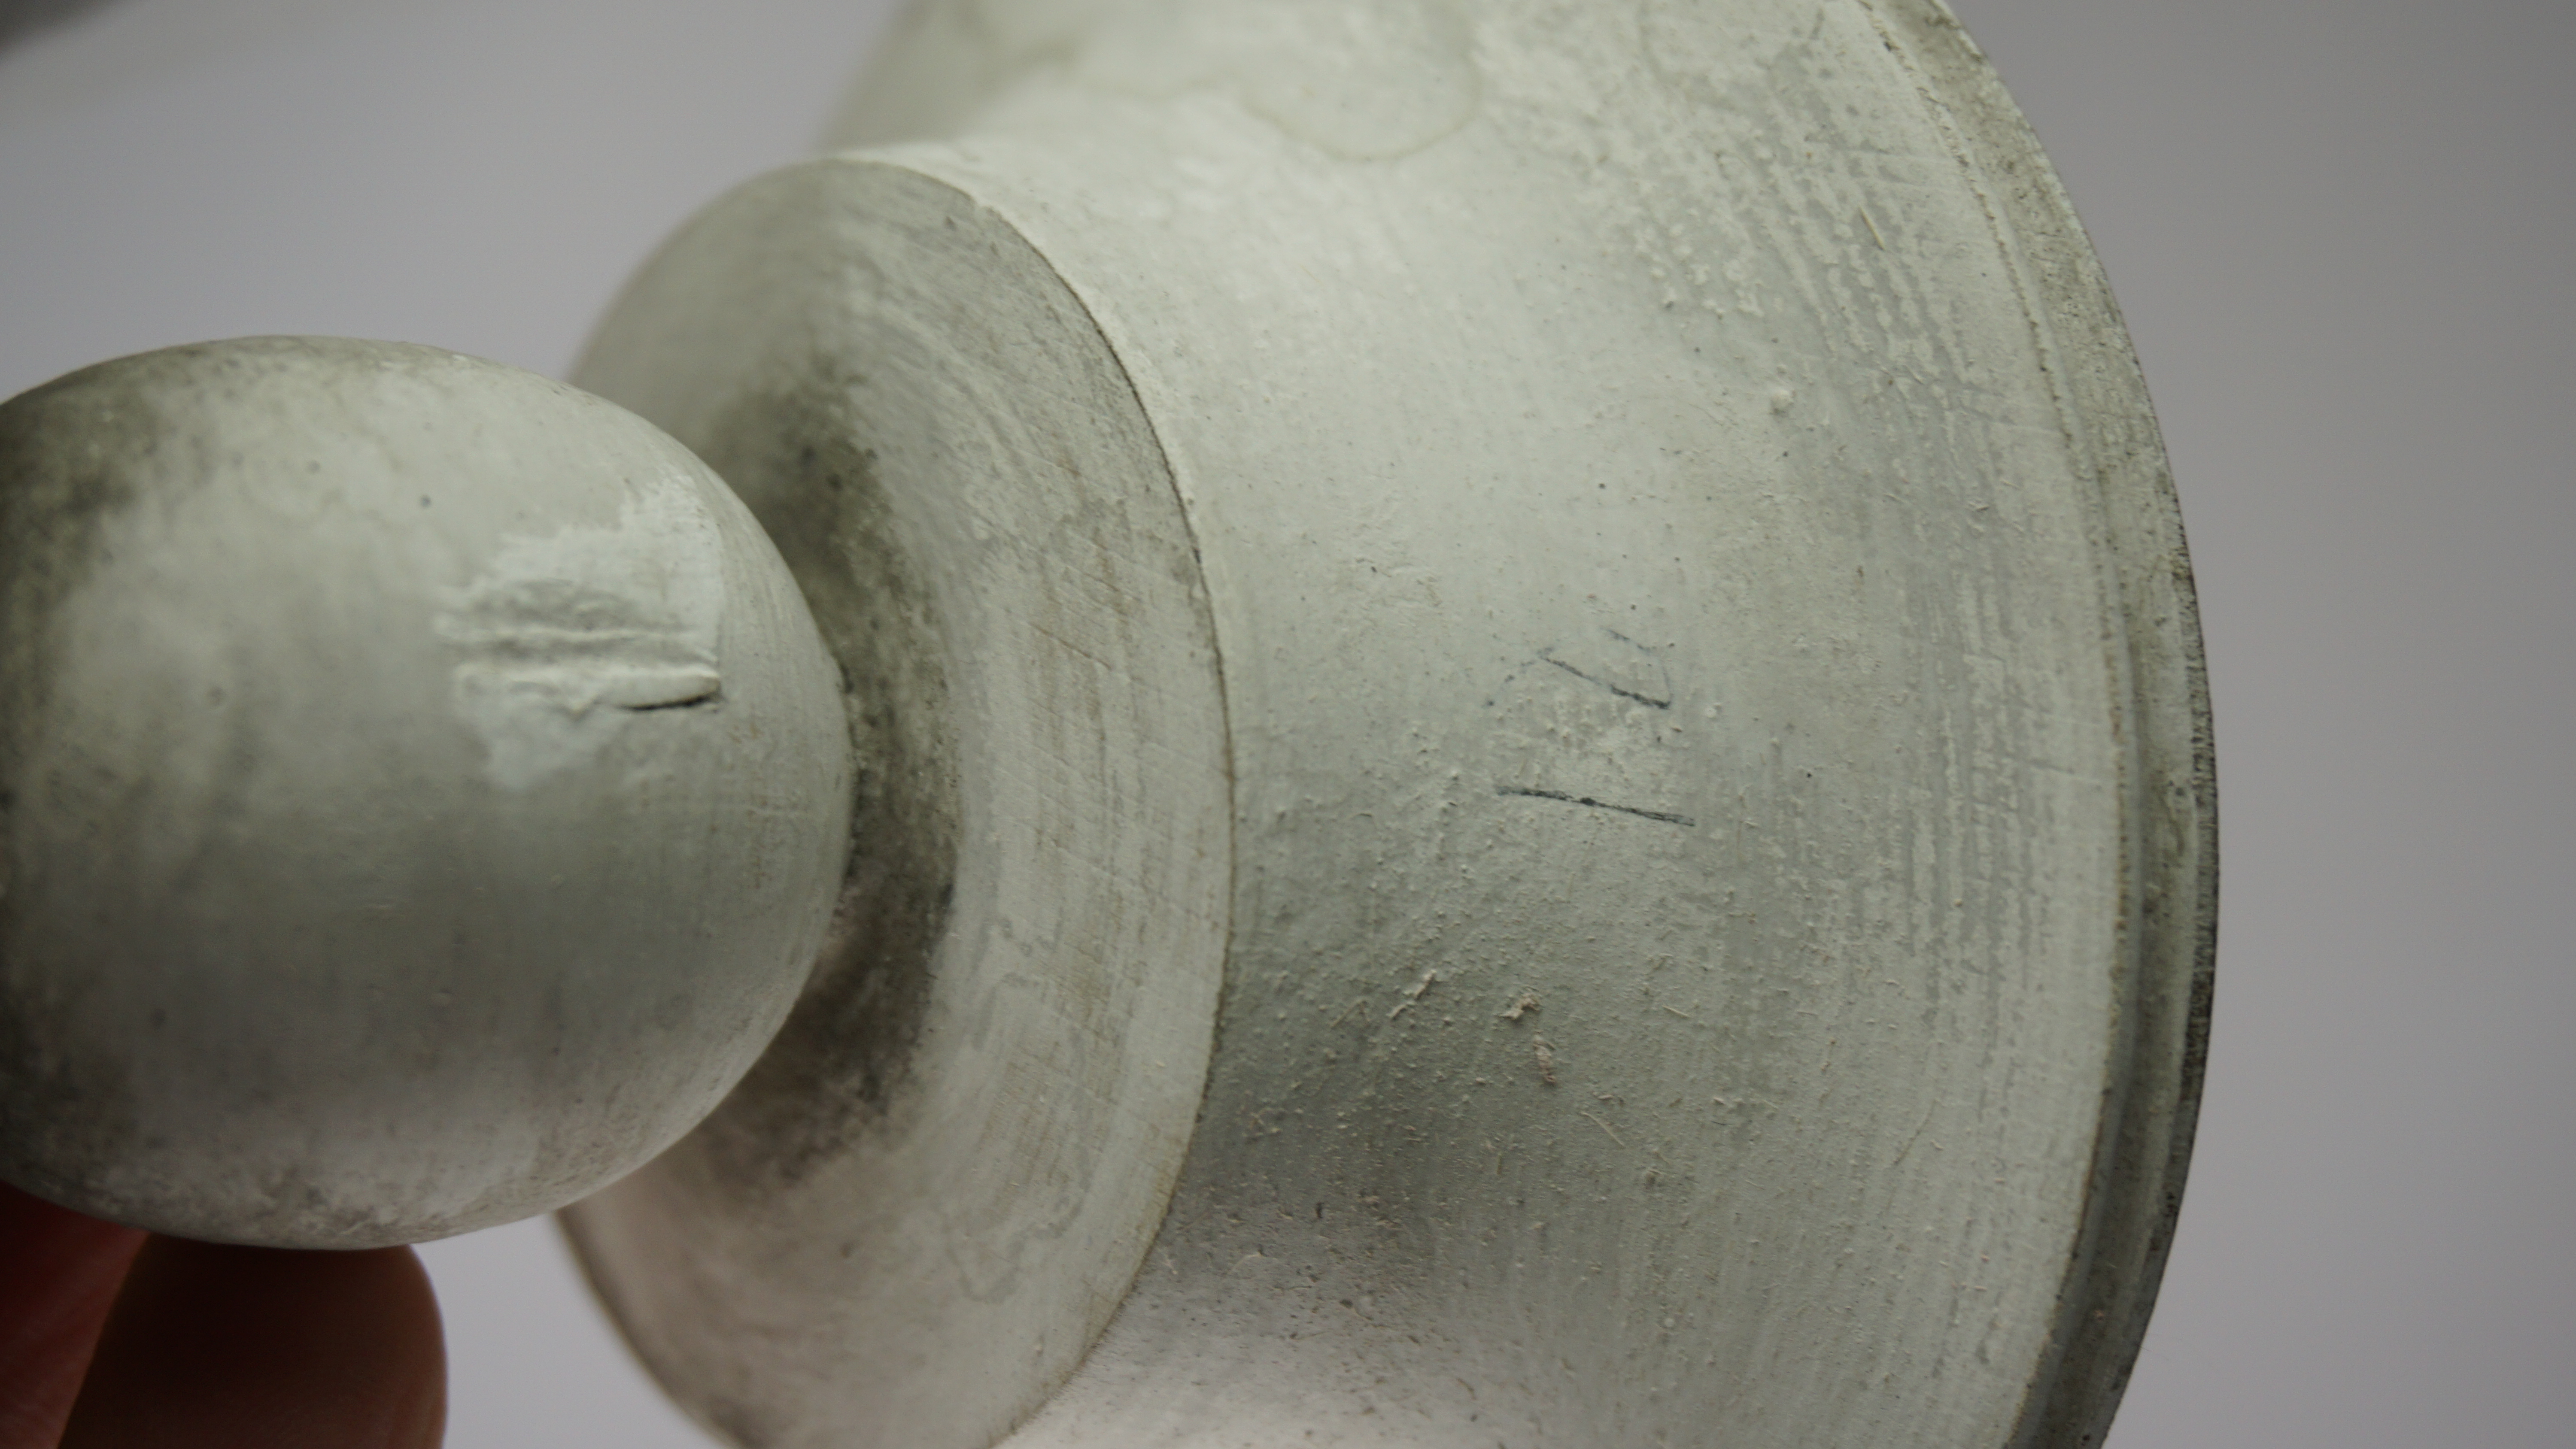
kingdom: Animalia
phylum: Chordata
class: Aves
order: Accipitriformes
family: Accipitridae
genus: Circus
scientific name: Circus cyaneus
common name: Hen harrier
